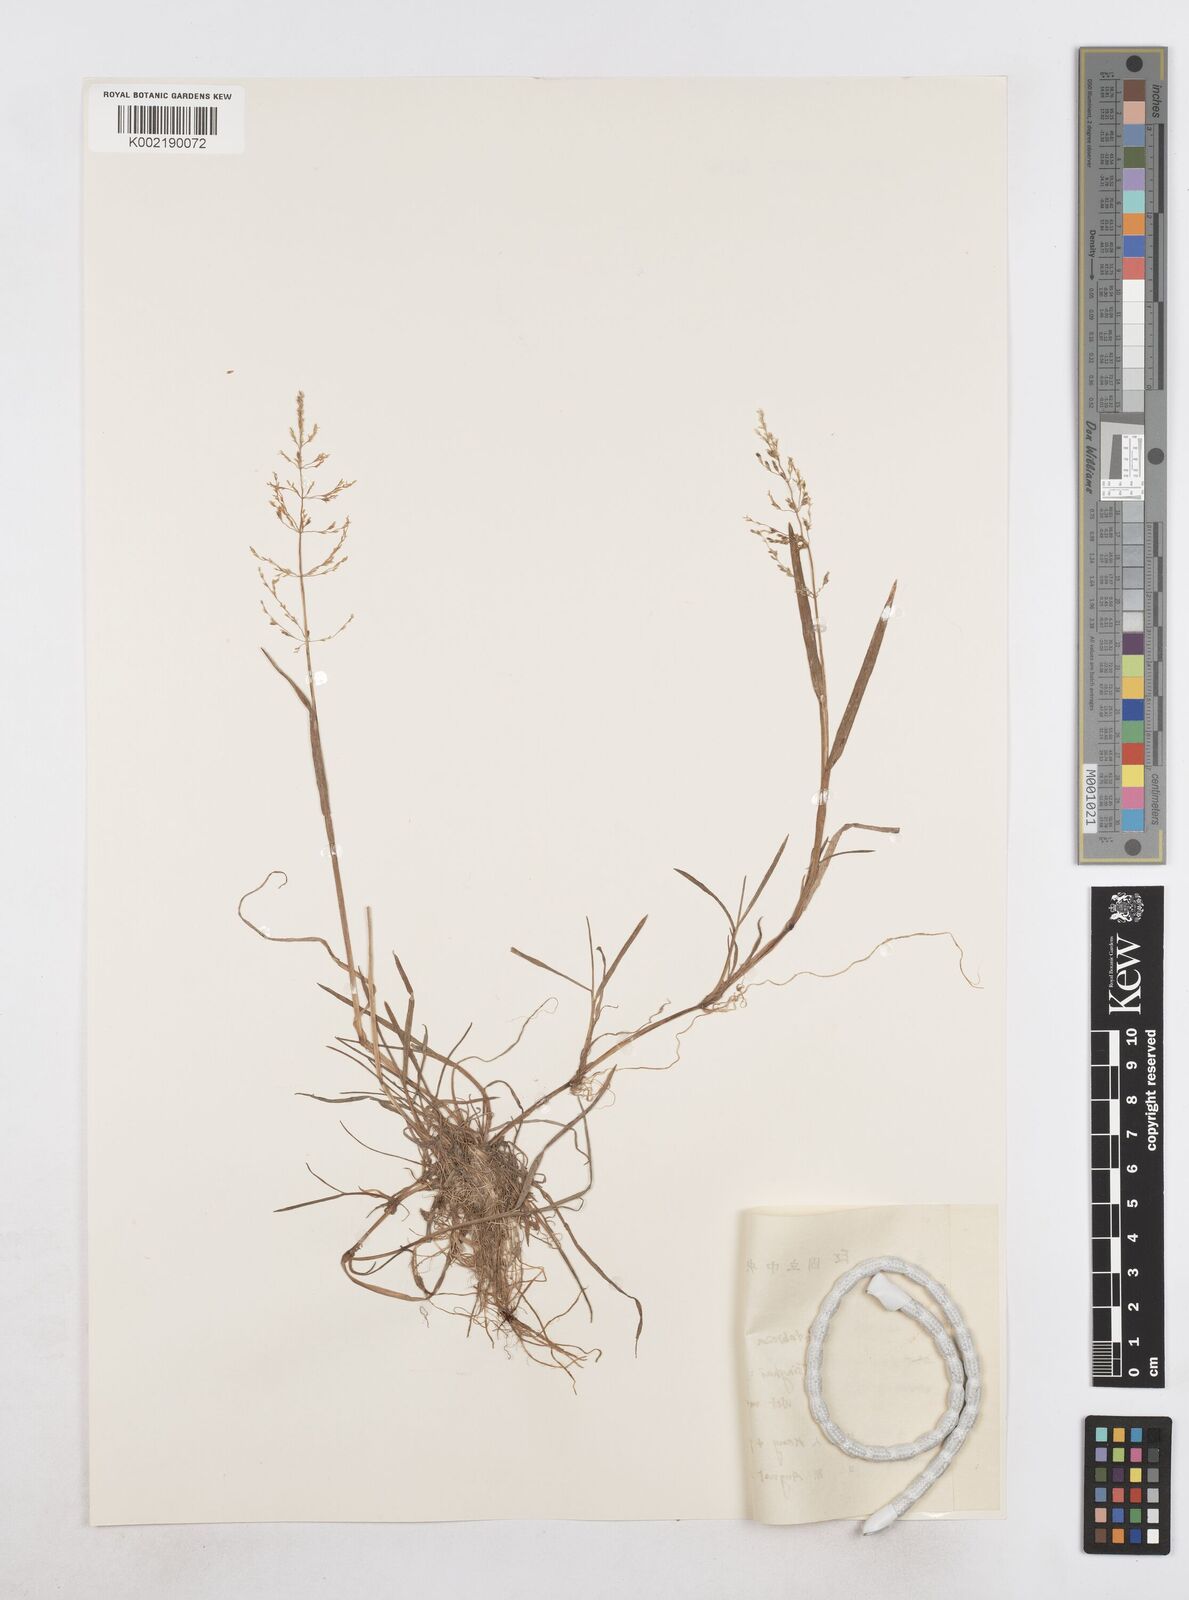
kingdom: Plantae
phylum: Tracheophyta
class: Liliopsida
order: Poales
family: Poaceae
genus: Catabrosa
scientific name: Catabrosa aquatica
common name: Whorl-grass
